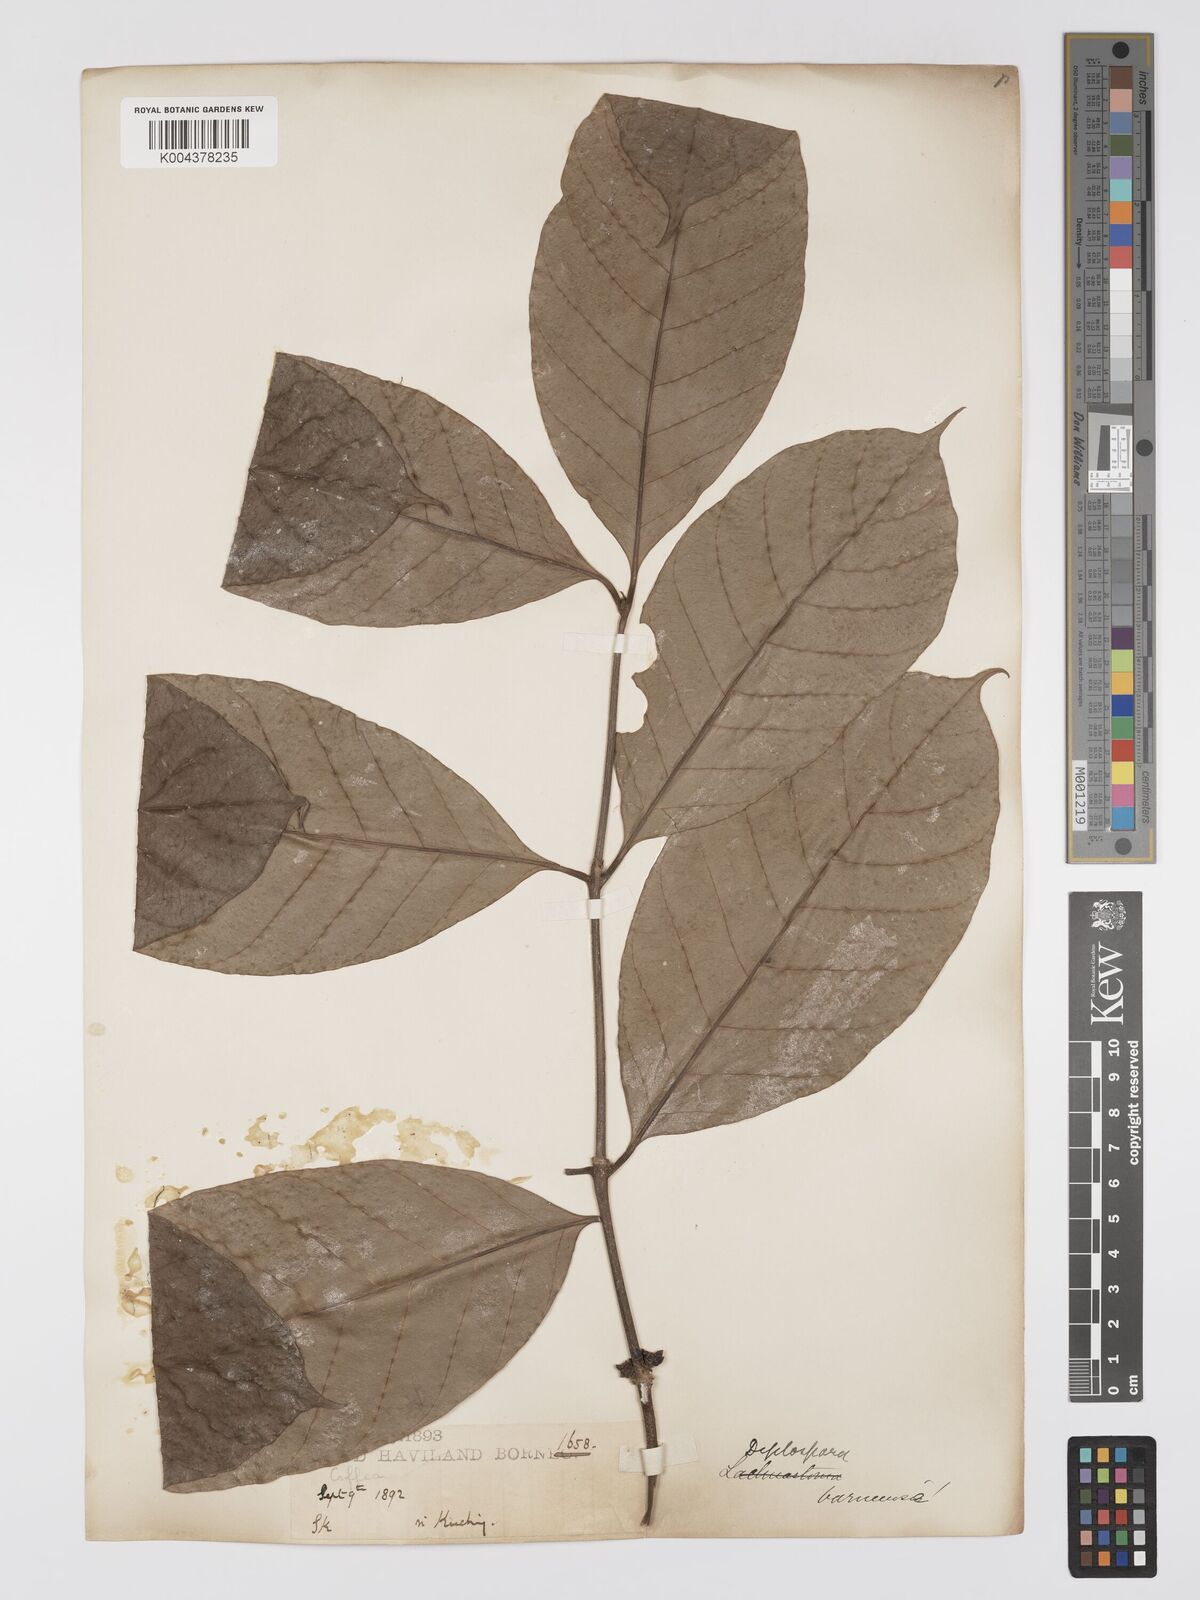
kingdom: Plantae
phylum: Tracheophyta
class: Magnoliopsida
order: Gentianales
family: Rubiaceae
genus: Diplospora
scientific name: Diplospora
